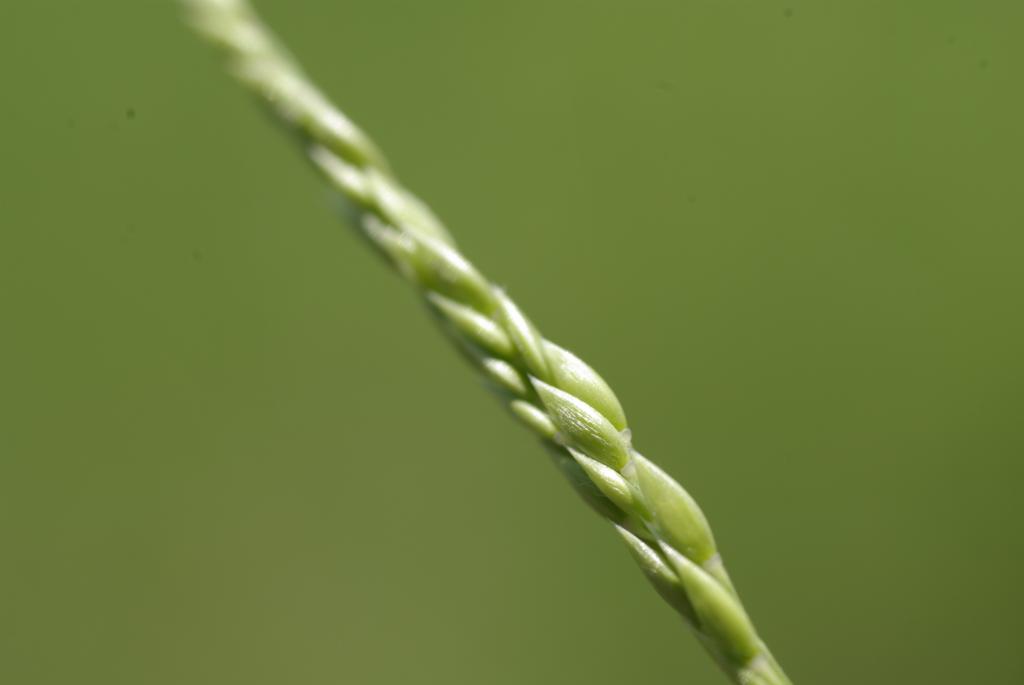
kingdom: Plantae
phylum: Tracheophyta
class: Liliopsida
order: Poales
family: Poaceae
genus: Eriochloa
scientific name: Eriochloa procera
